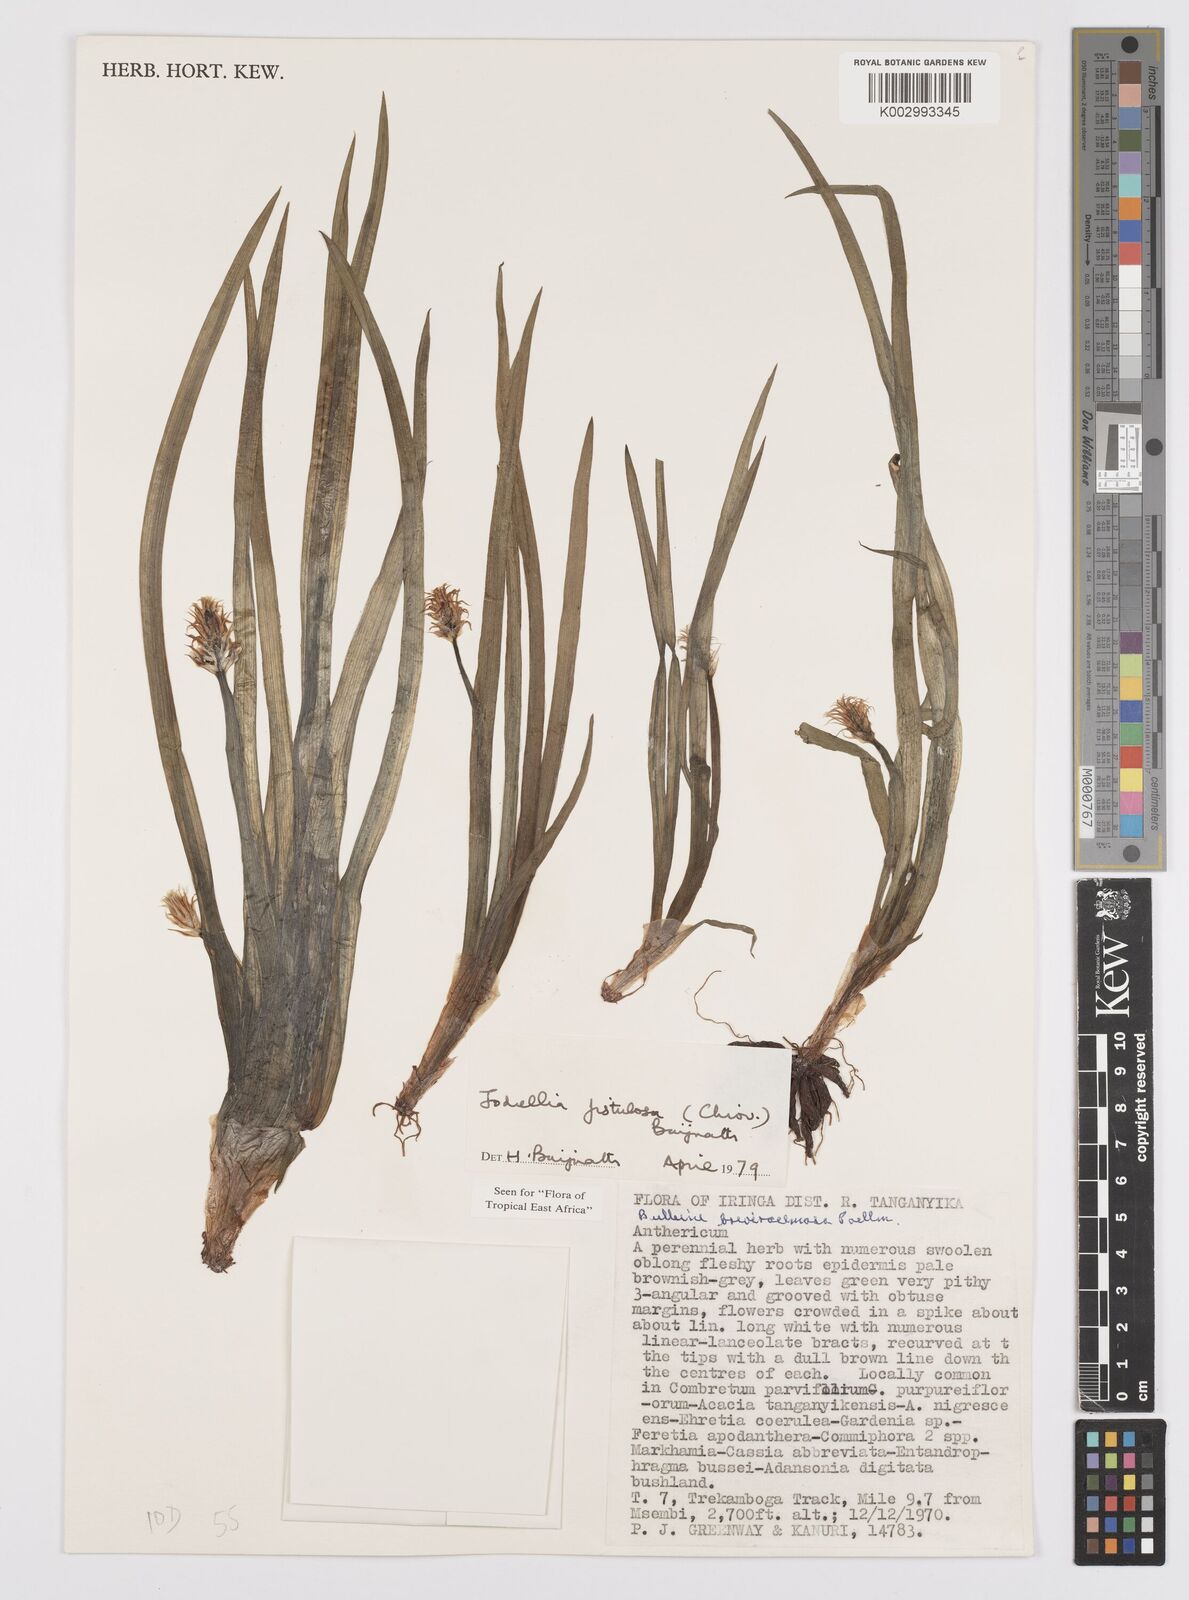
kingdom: Plantae
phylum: Tracheophyta
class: Liliopsida
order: Asparagales
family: Asphodelaceae
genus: Bulbine
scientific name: Bulbine fistulosa
